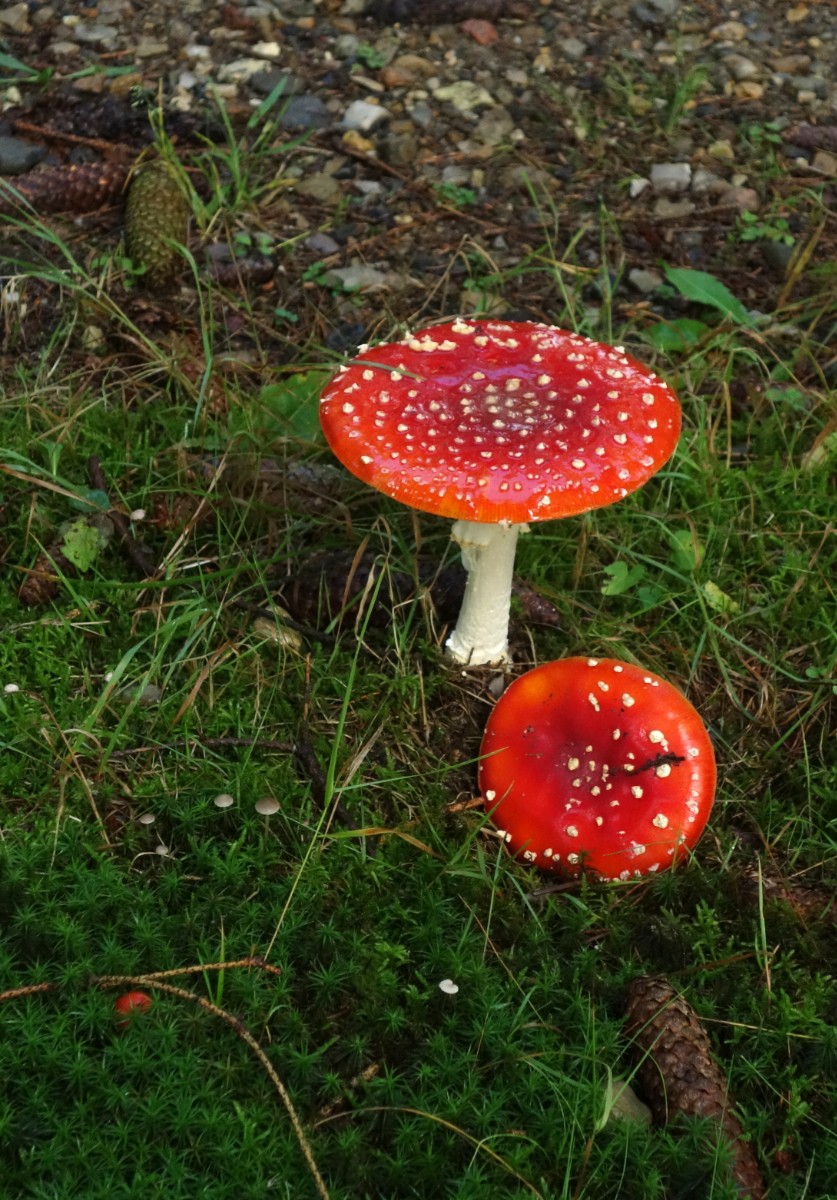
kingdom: Fungi
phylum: Basidiomycota
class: Agaricomycetes
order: Agaricales
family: Amanitaceae
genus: Amanita
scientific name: Amanita muscaria
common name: rød fluesvamp
